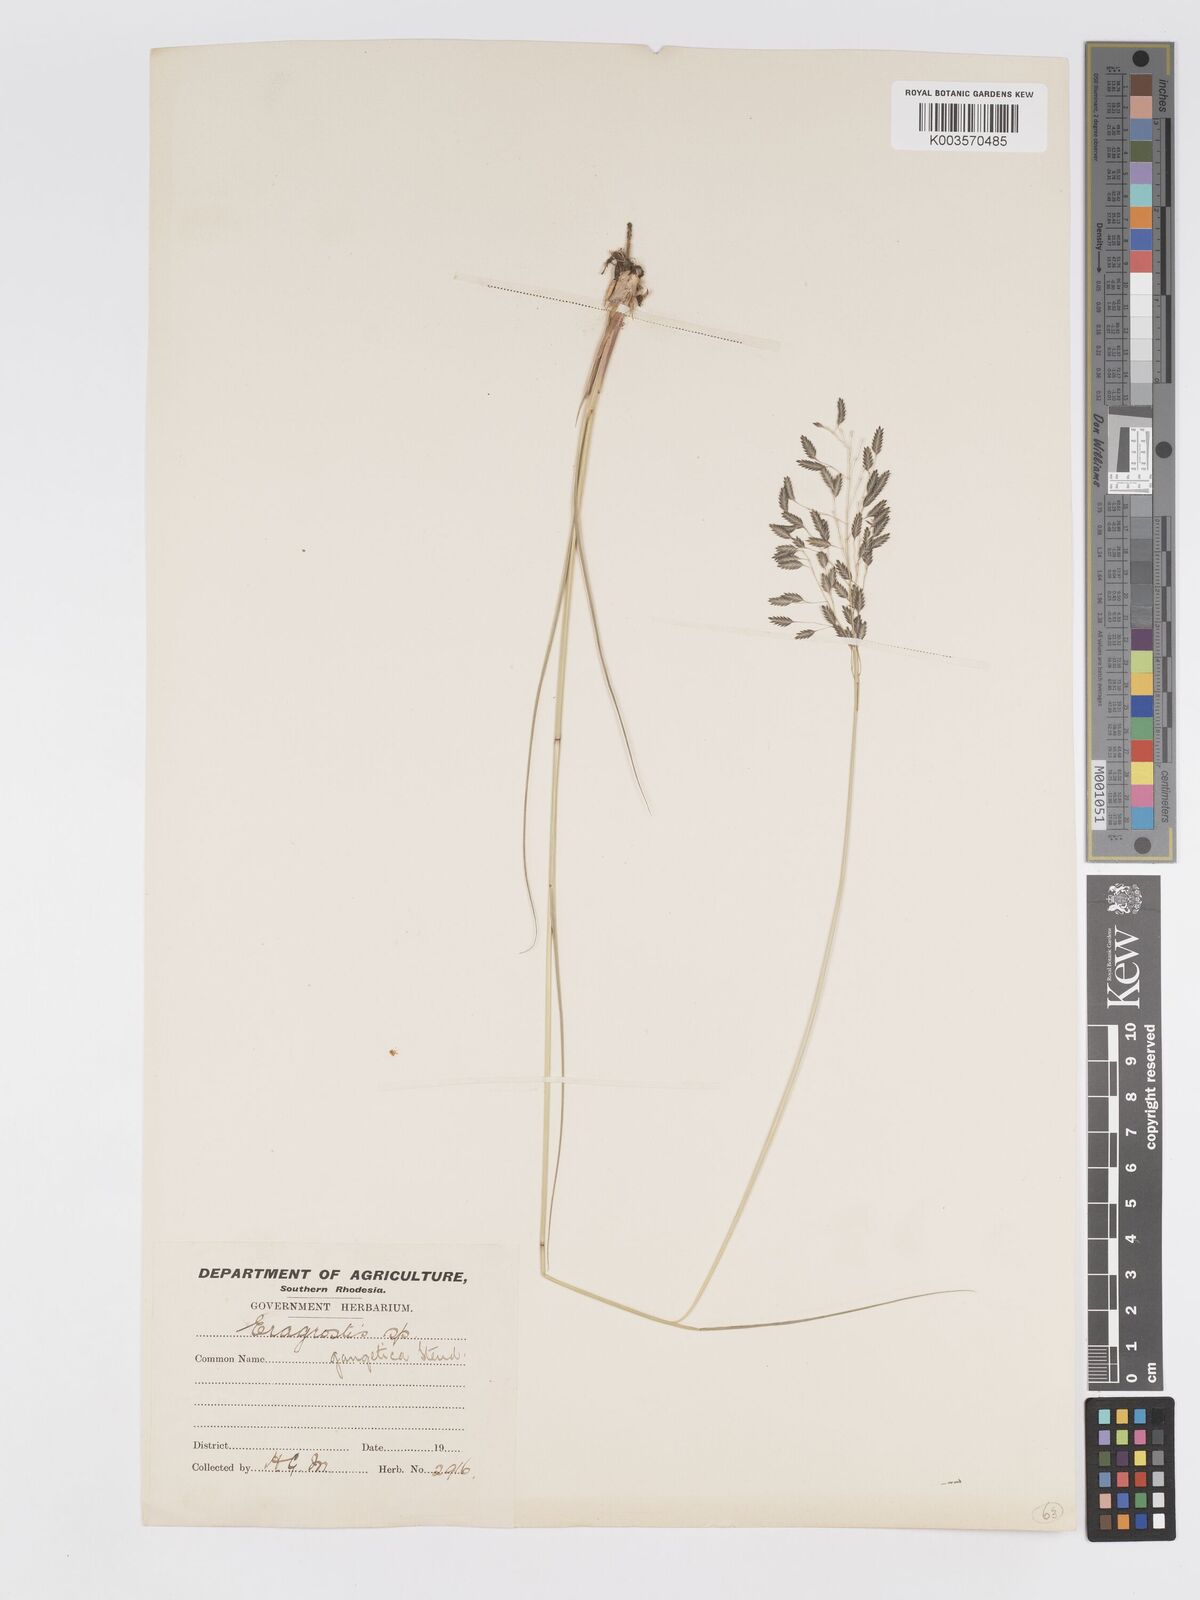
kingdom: Plantae
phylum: Tracheophyta
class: Liliopsida
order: Poales
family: Poaceae
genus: Eragrostis
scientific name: Eragrostis inamoena
